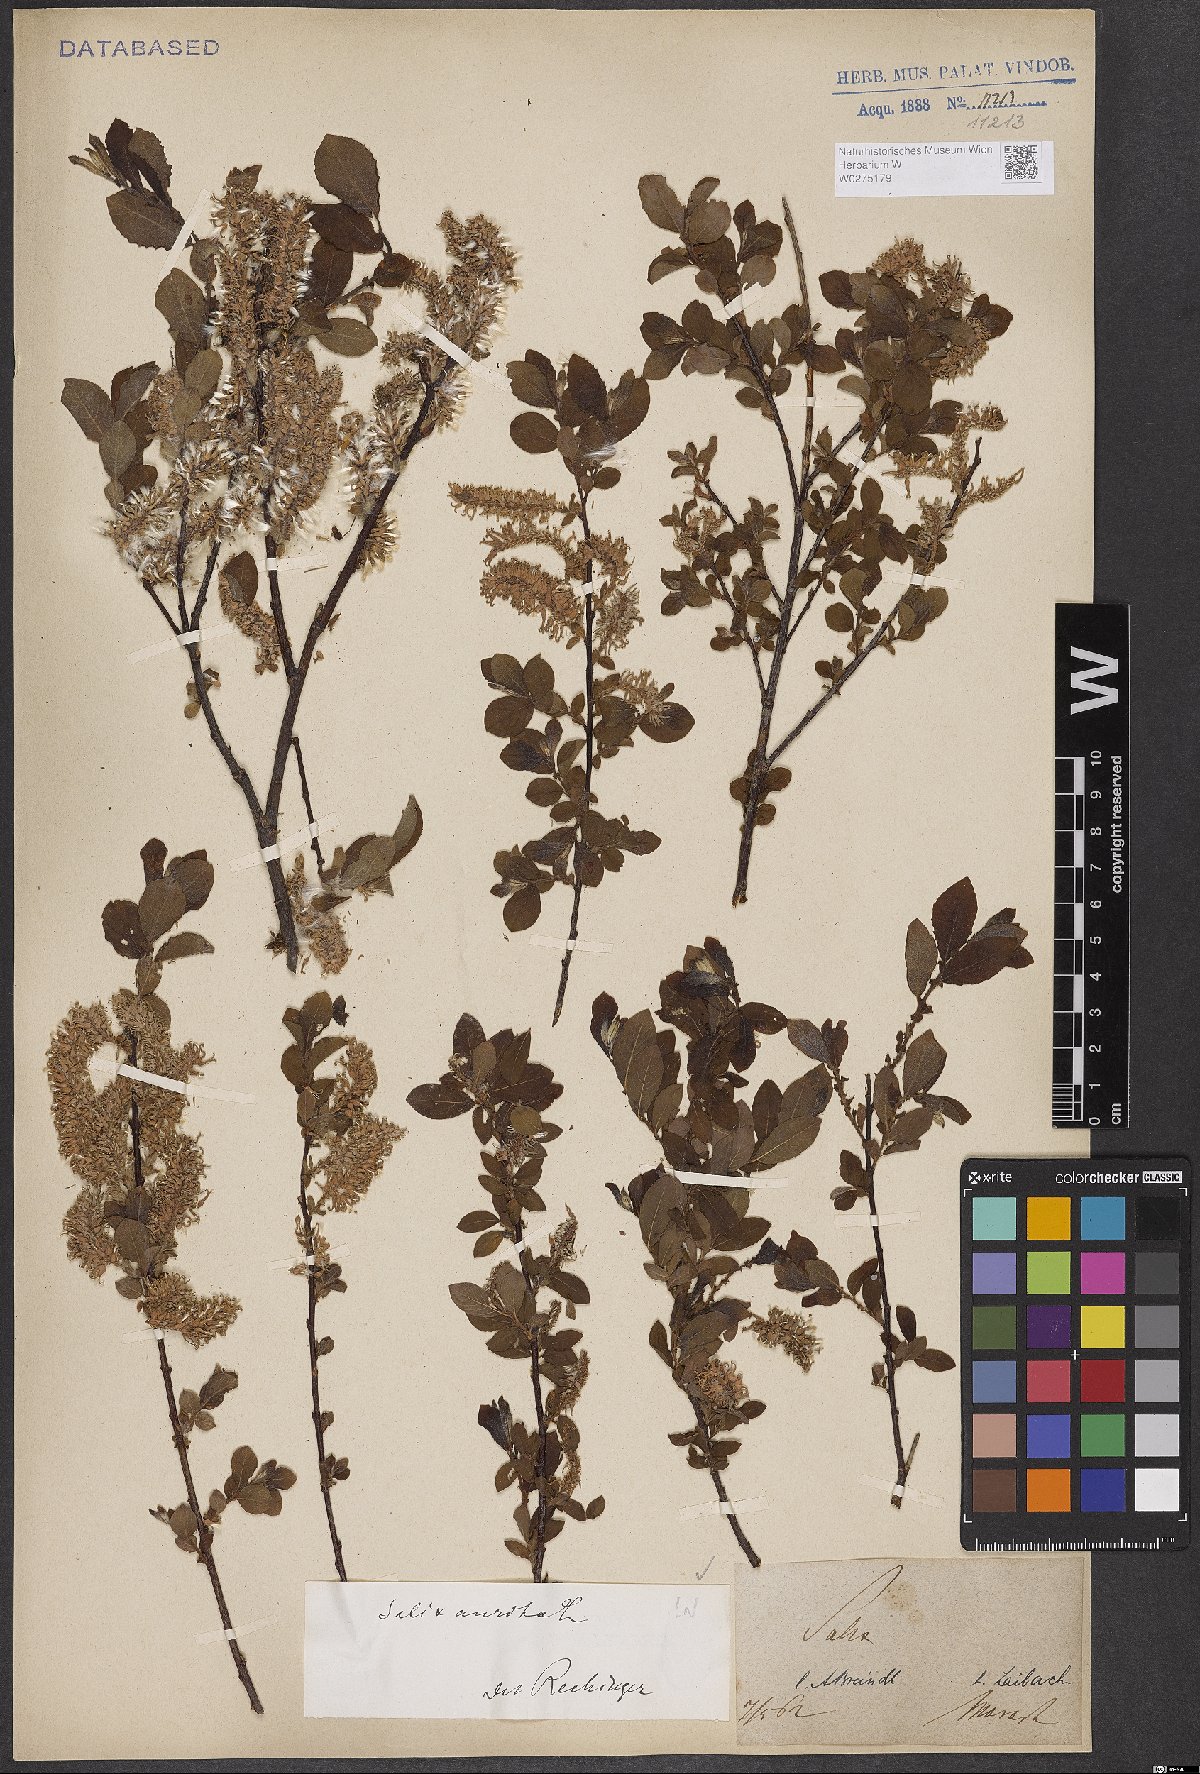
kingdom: Plantae
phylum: Tracheophyta
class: Magnoliopsida
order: Malpighiales
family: Salicaceae
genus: Salix
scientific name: Salix aurita
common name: Eared willow
